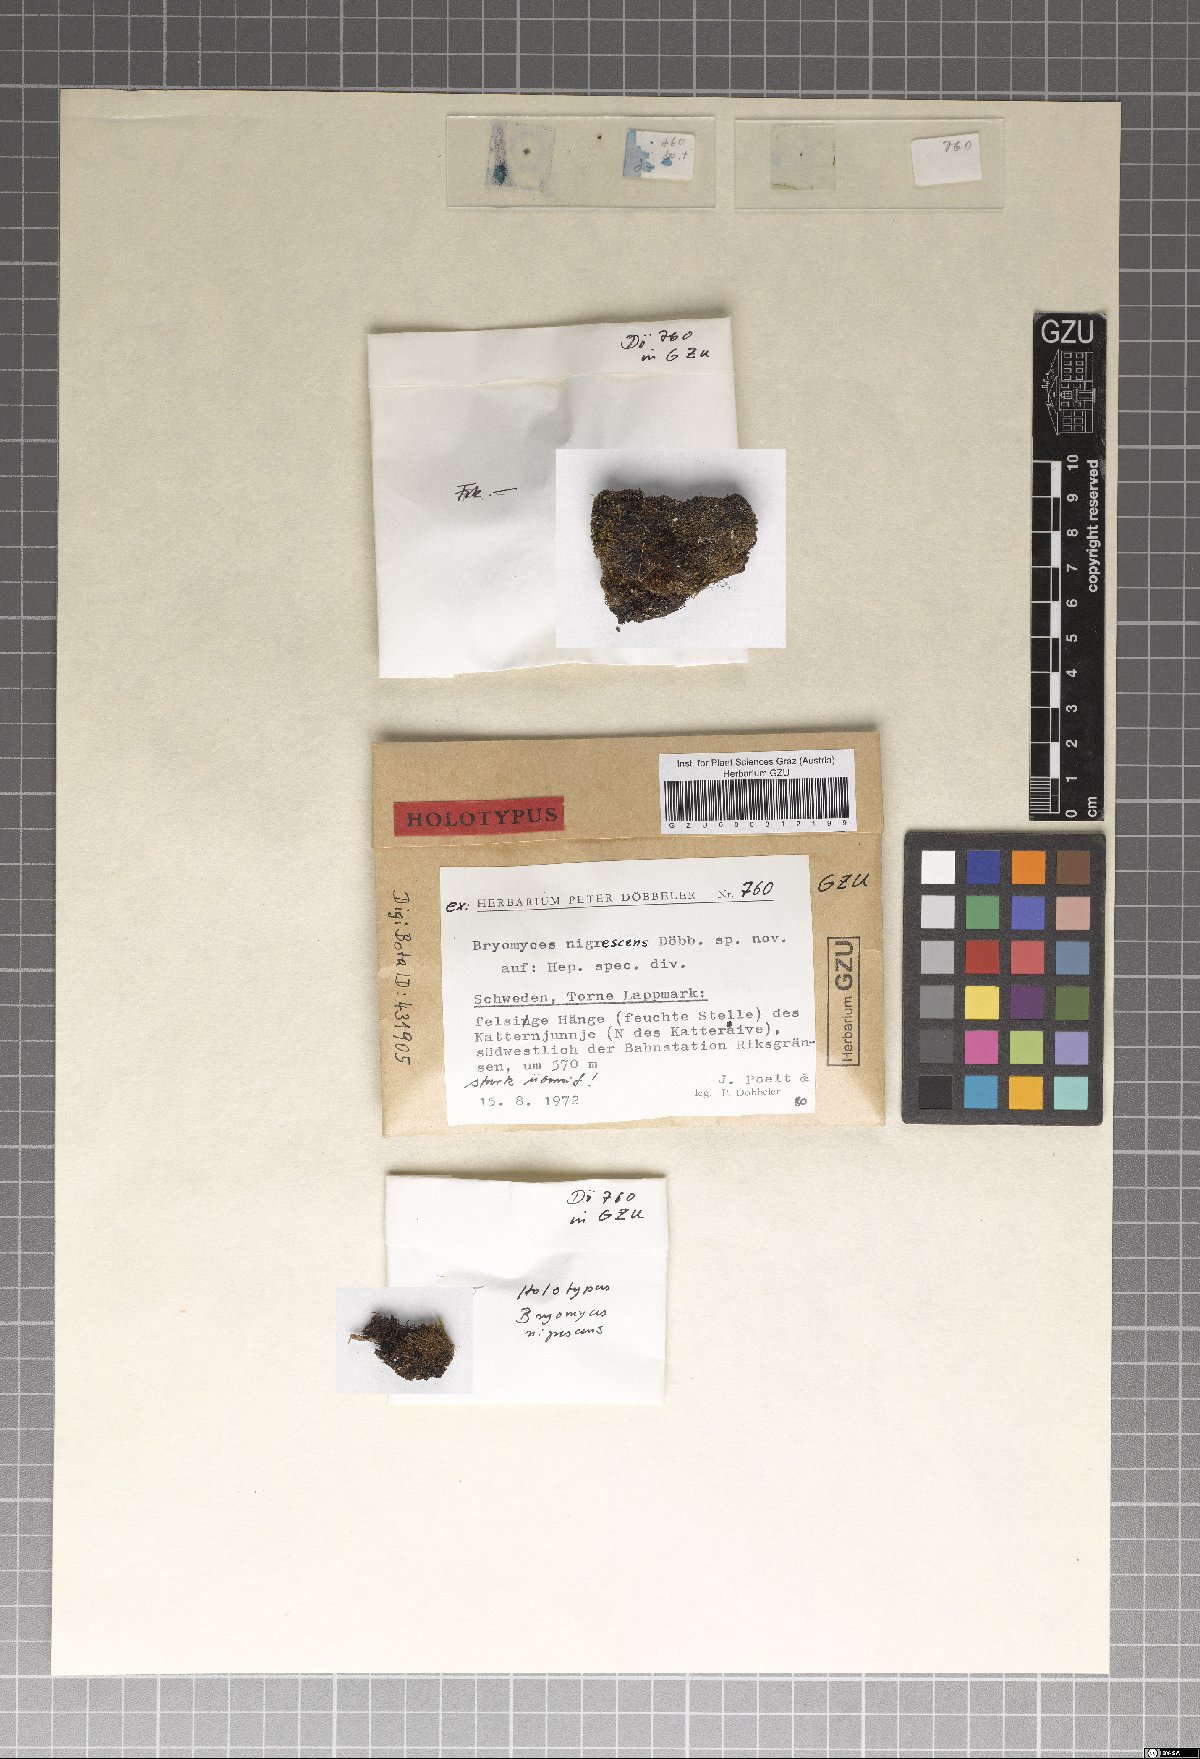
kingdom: Fungi
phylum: Ascomycota
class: Dothideomycetes
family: Pseudoperisporiaceae
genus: Bryomyces
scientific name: Bryomyces nigrescens
